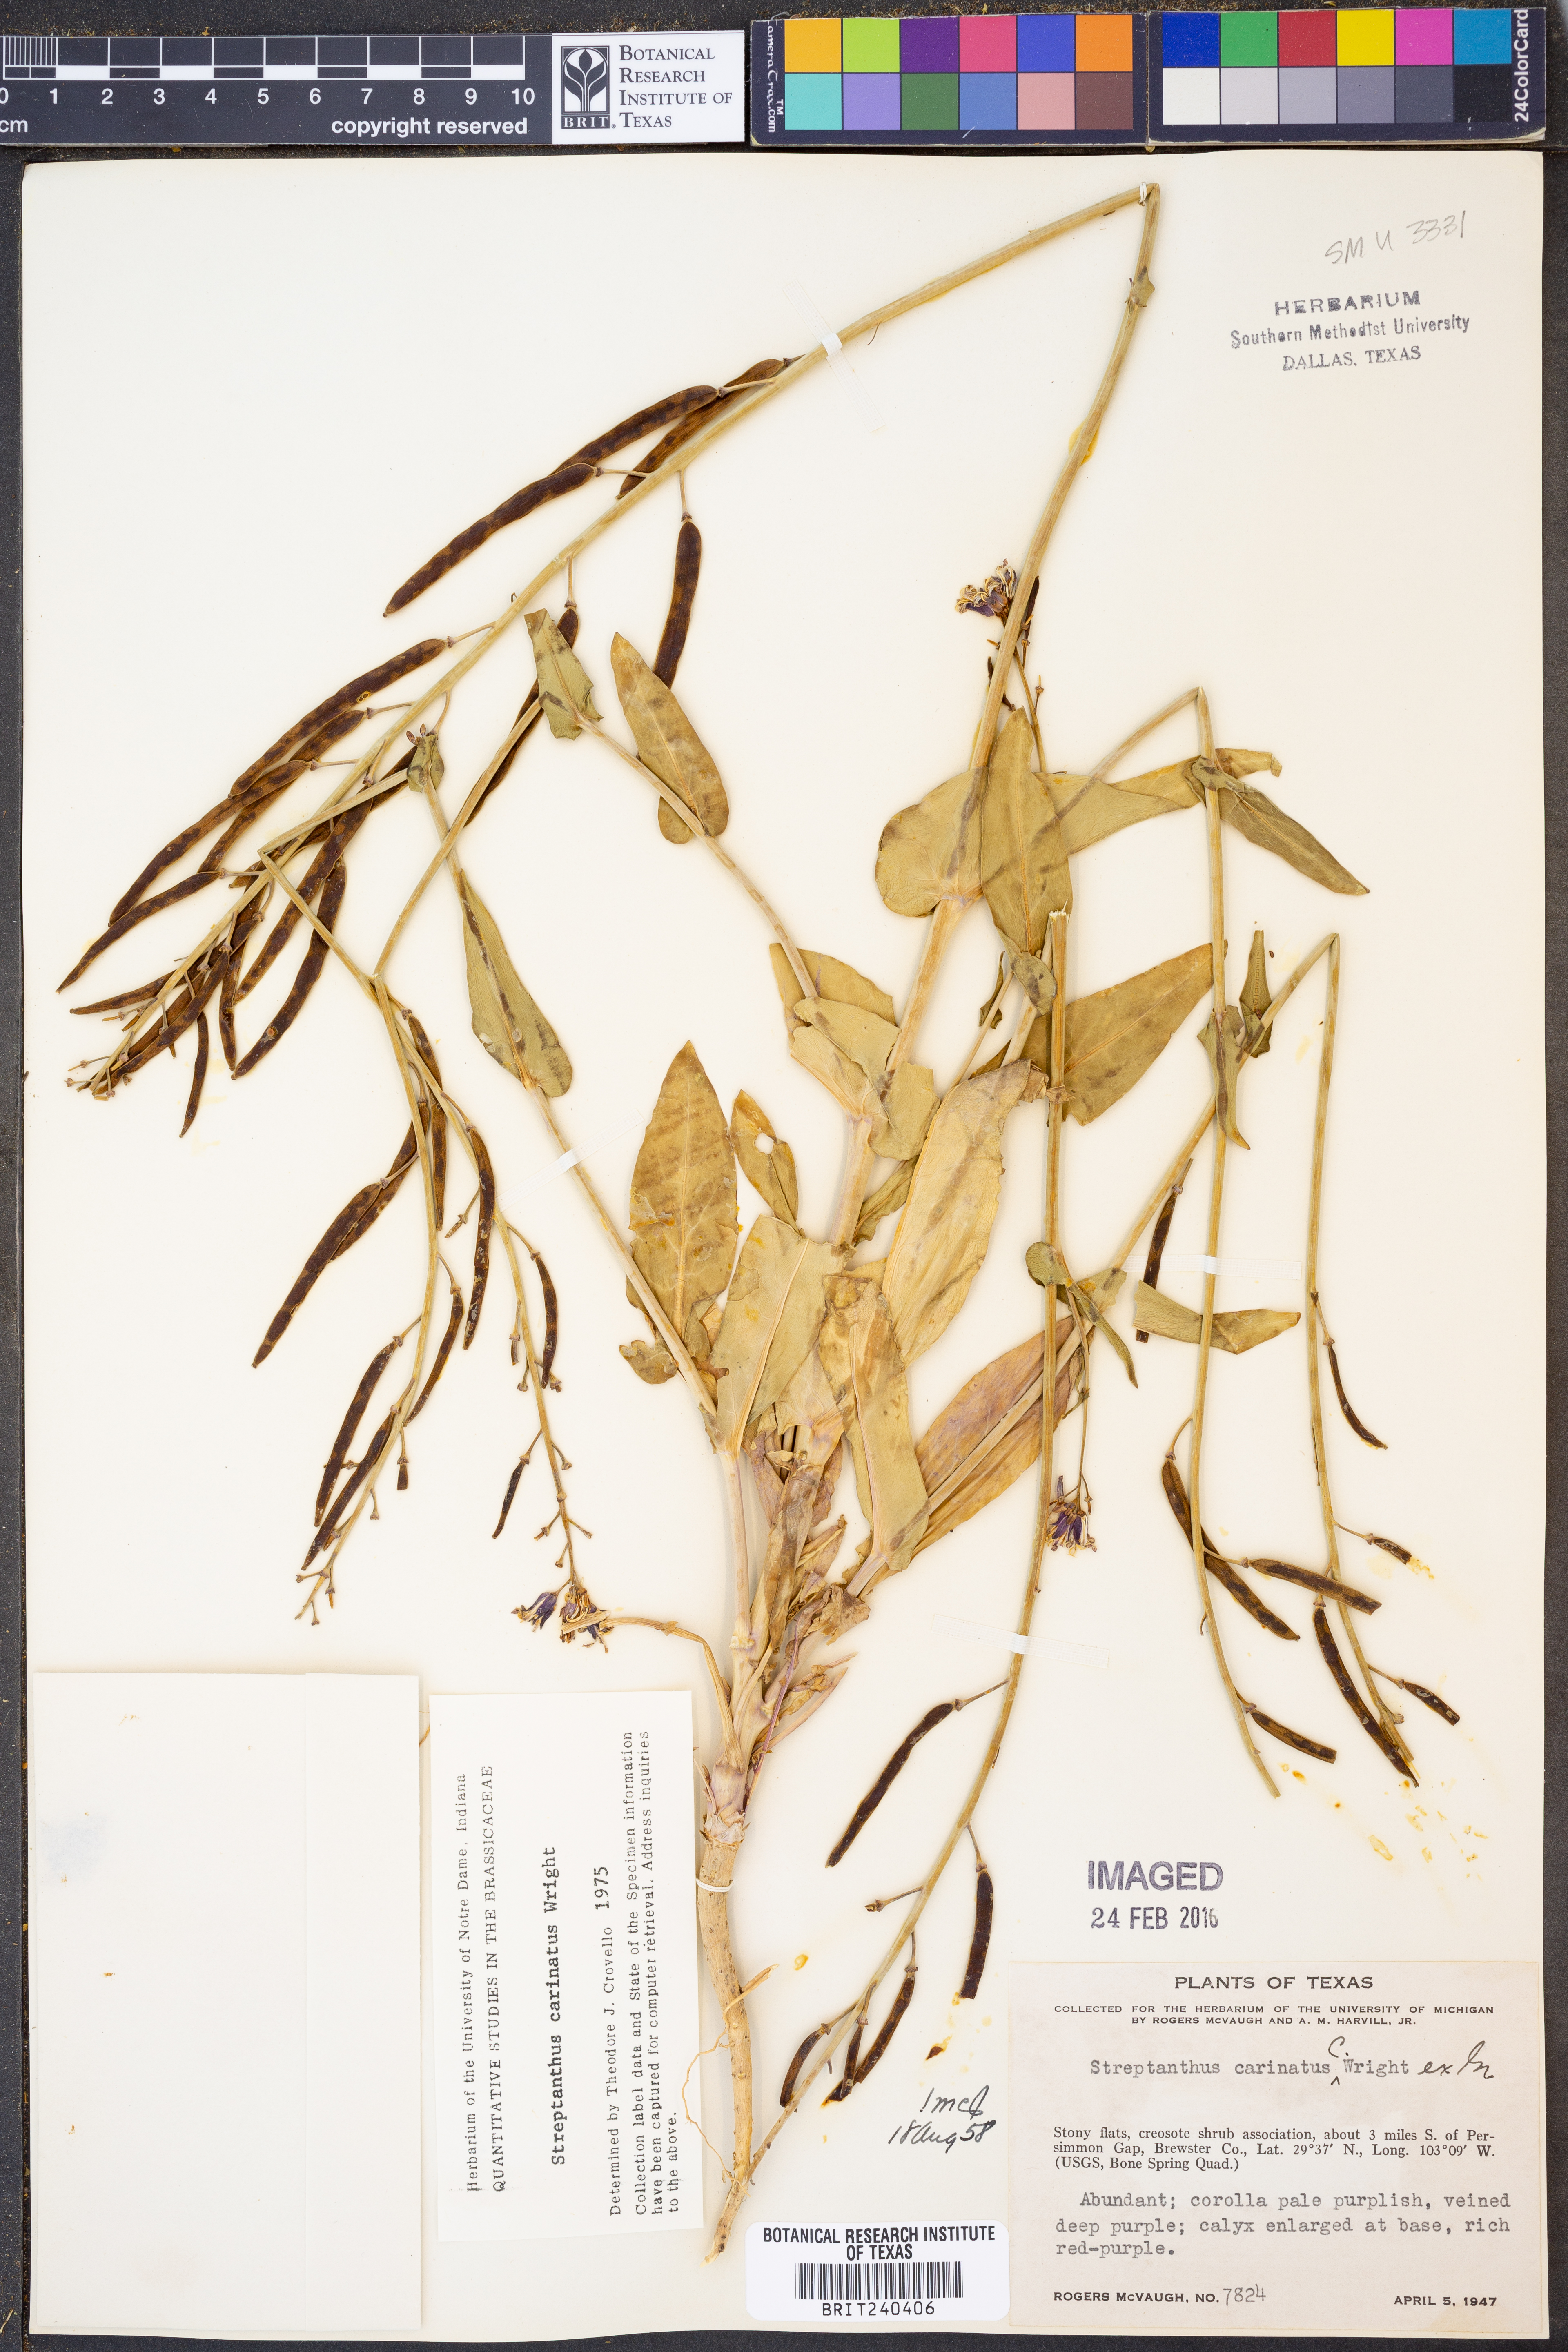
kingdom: Plantae
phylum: Tracheophyta
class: Magnoliopsida
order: Brassicales
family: Brassicaceae
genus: Streptanthus
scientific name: Streptanthus carinatus
